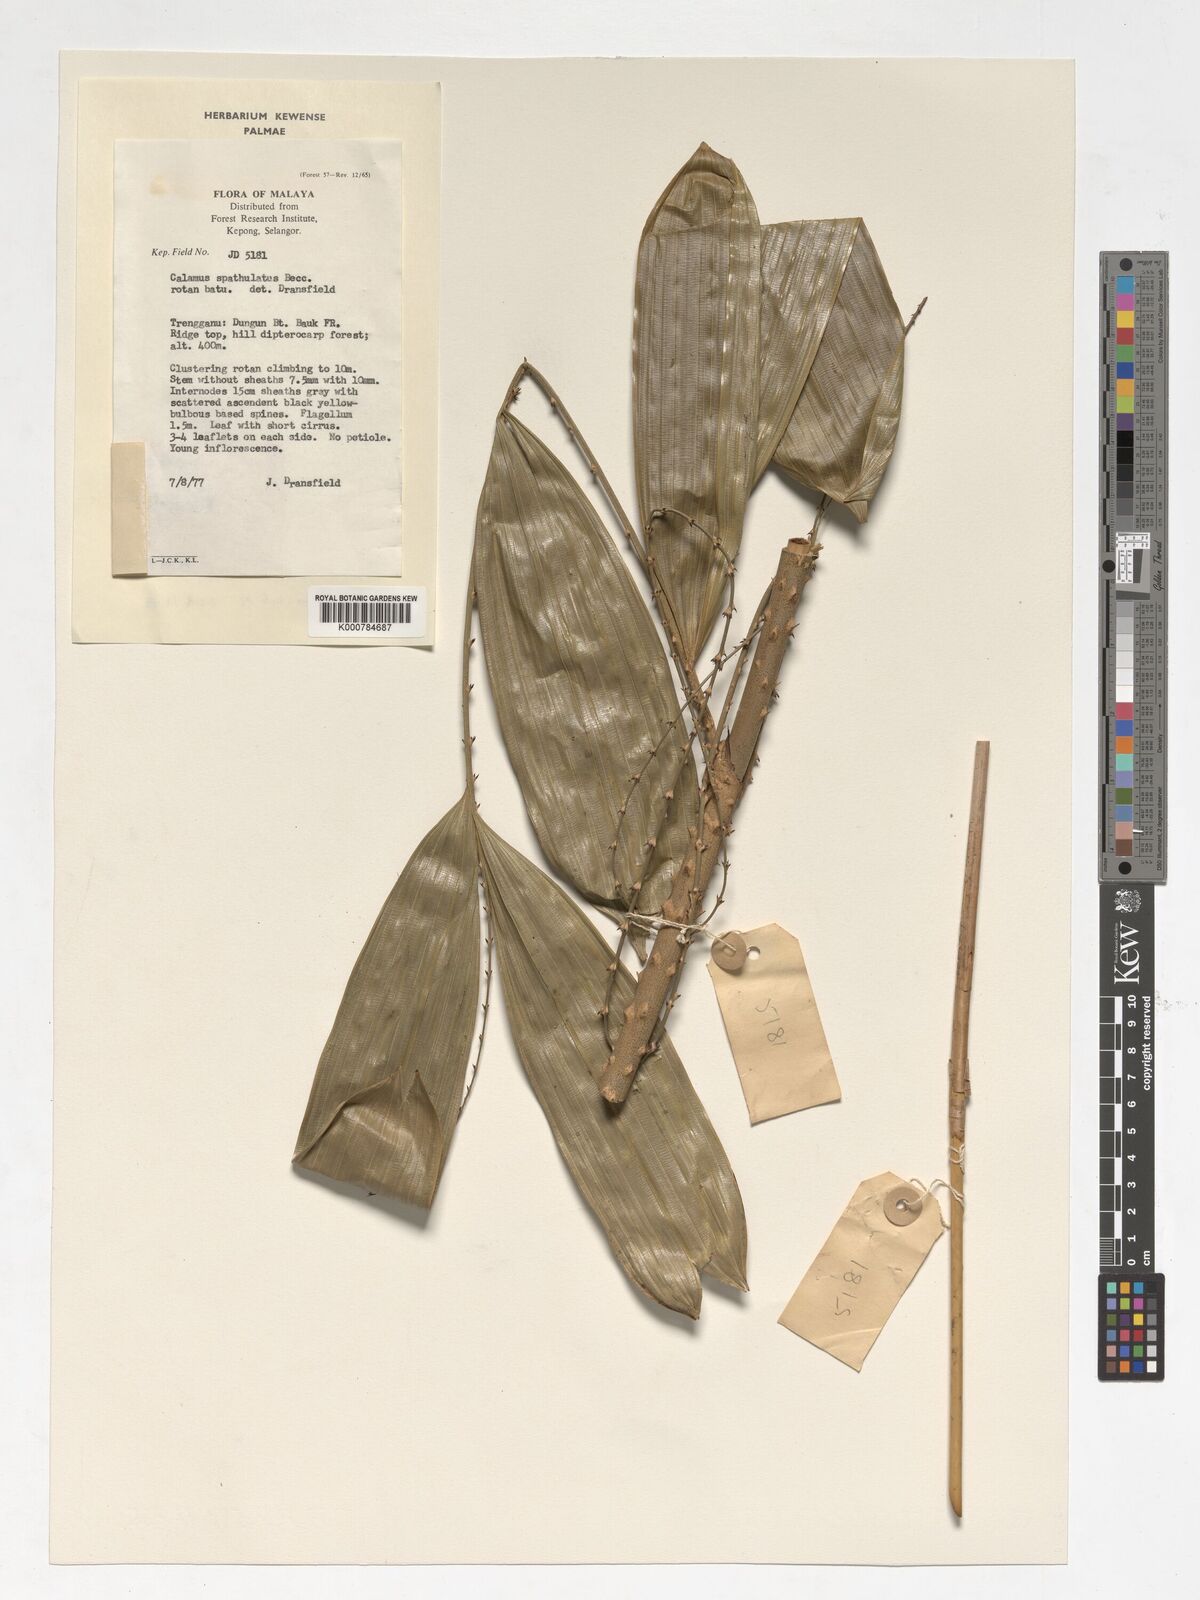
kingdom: Plantae
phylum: Tracheophyta
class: Liliopsida
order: Arecales
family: Arecaceae
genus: Calamus
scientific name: Calamus insignis
